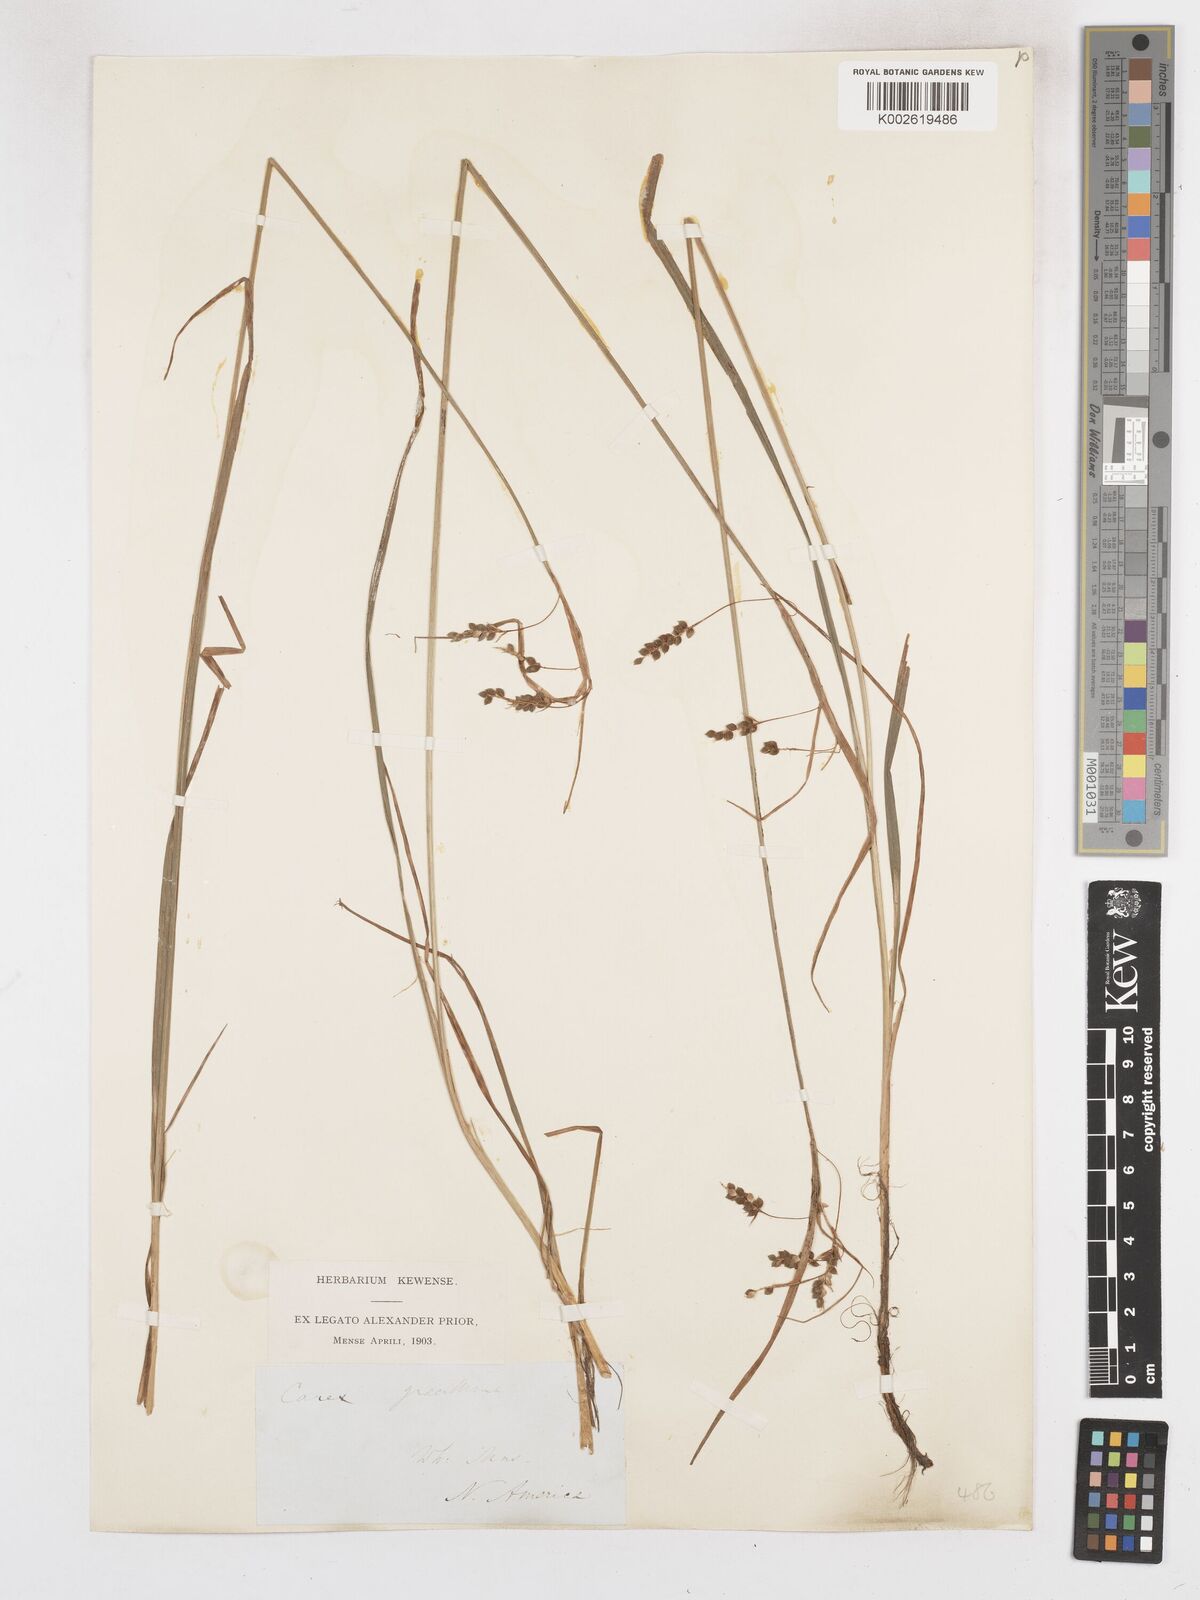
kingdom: Plantae
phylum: Tracheophyta
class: Liliopsida
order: Poales
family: Cyperaceae
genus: Carex
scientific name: Carex gracillima
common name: Graceful sedge
